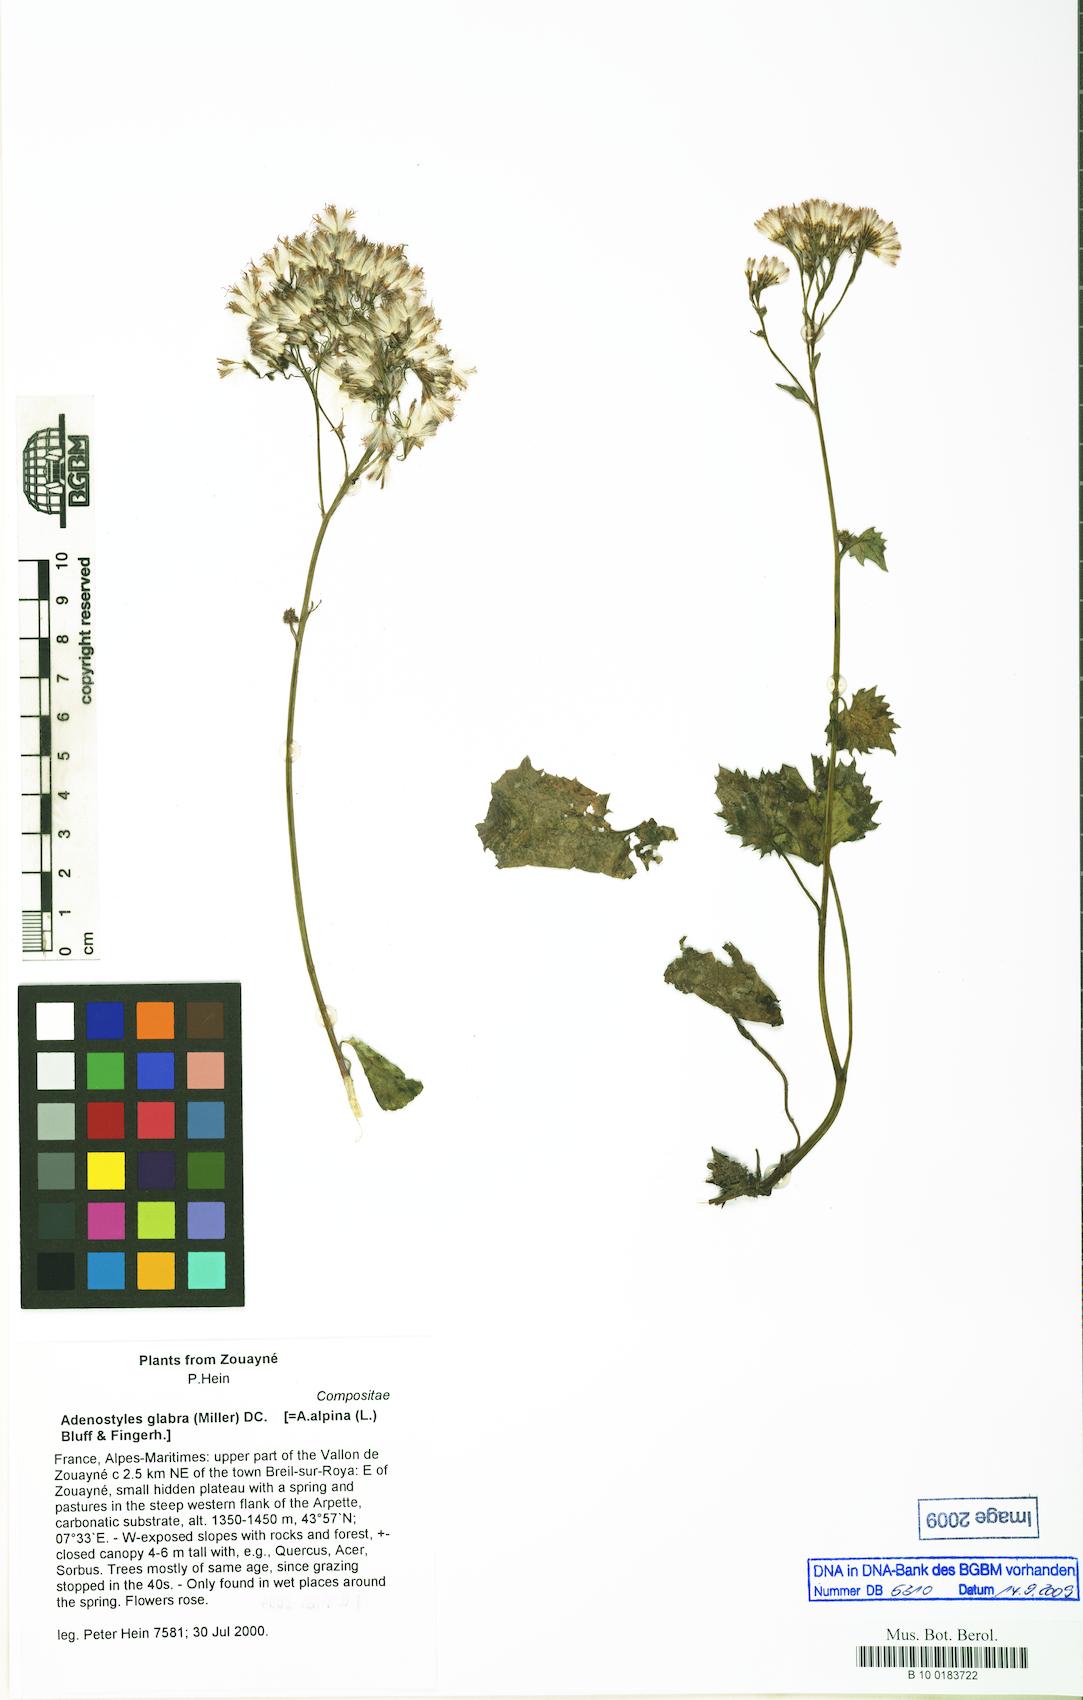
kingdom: Plantae
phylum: Tracheophyta
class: Magnoliopsida
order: Asterales
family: Asteraceae
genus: Adenostyles
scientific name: Adenostyles alpina
